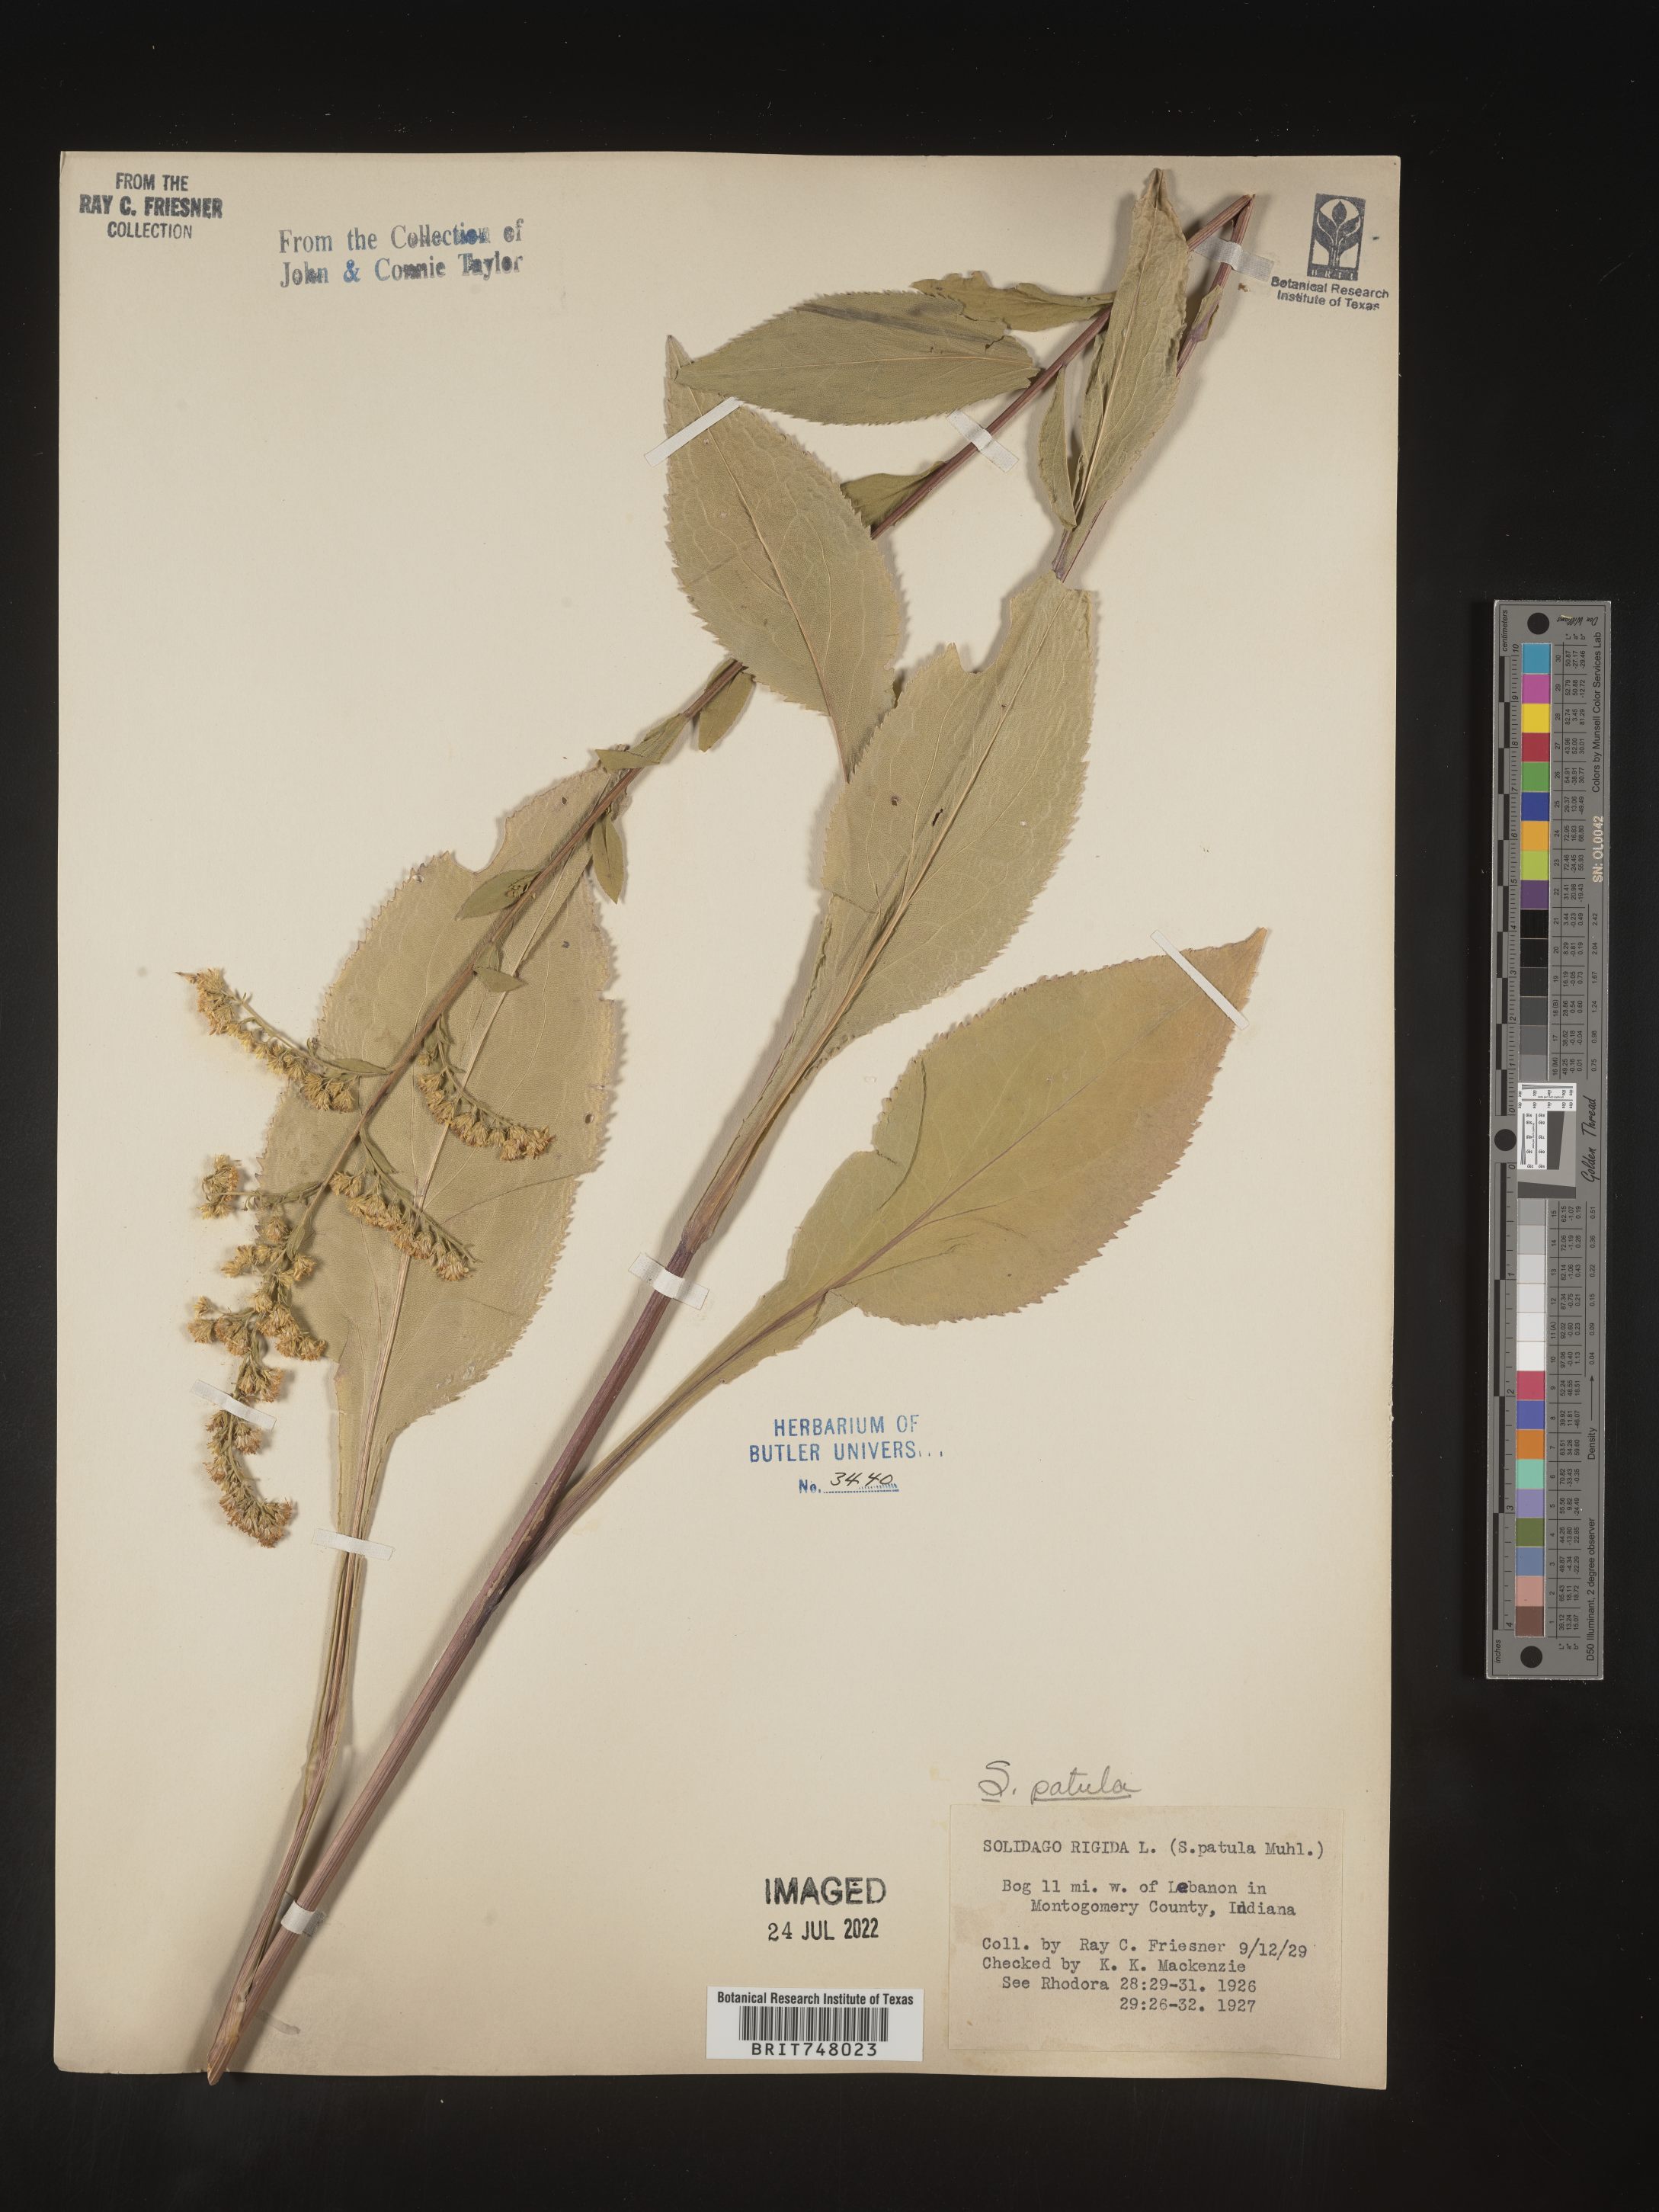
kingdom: Plantae
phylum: Tracheophyta
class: Magnoliopsida
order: Asterales
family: Asteraceae
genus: Solidago
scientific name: Solidago patula
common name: Rough-leaf goldenrod
